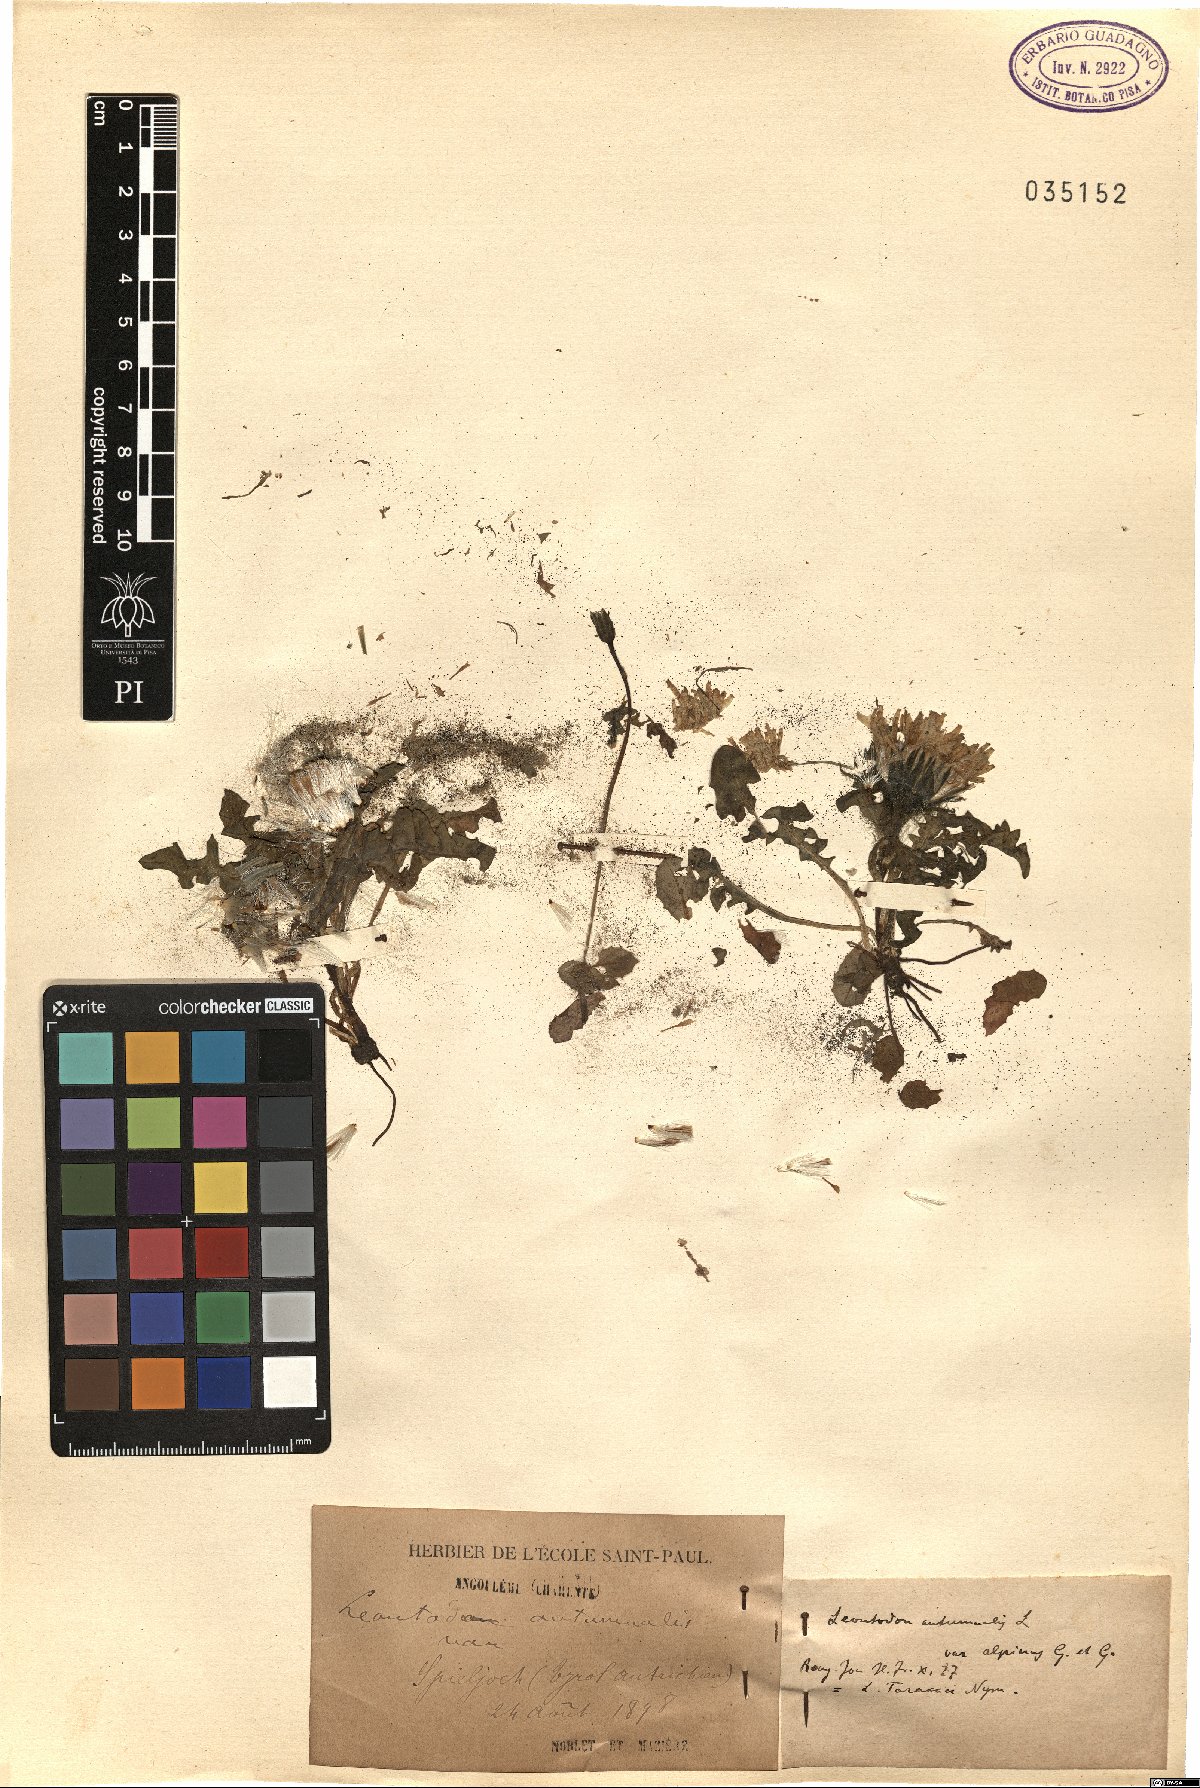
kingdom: Plantae
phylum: Tracheophyta
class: Magnoliopsida
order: Asterales
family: Asteraceae
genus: Scorzoneroides
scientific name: Scorzoneroides autumnalis
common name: Autumn hawkbit
